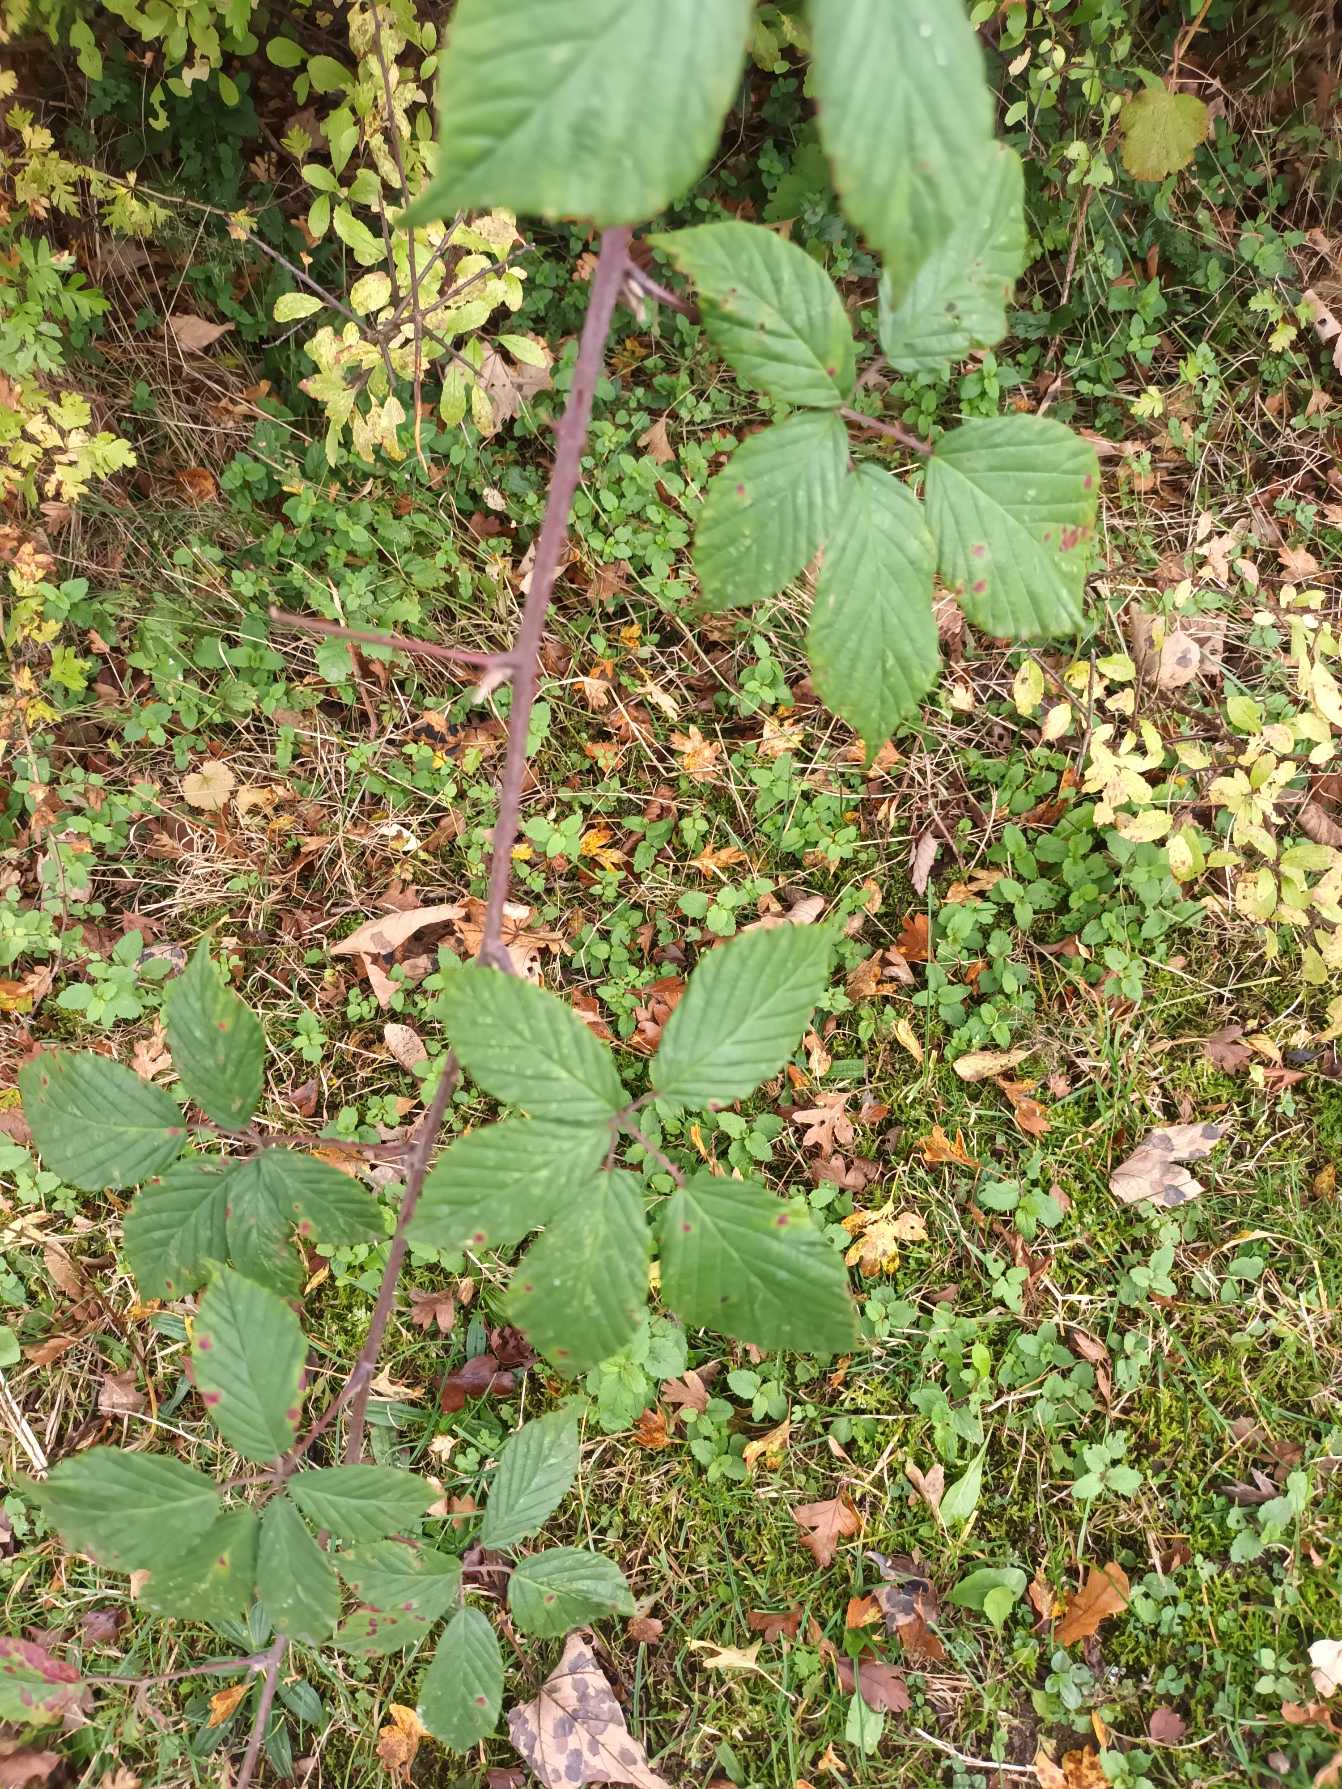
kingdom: Plantae
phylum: Tracheophyta
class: Magnoliopsida
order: Rosales
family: Rosaceae
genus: Rubus
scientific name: Rubus radula
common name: Rasperu brombær
